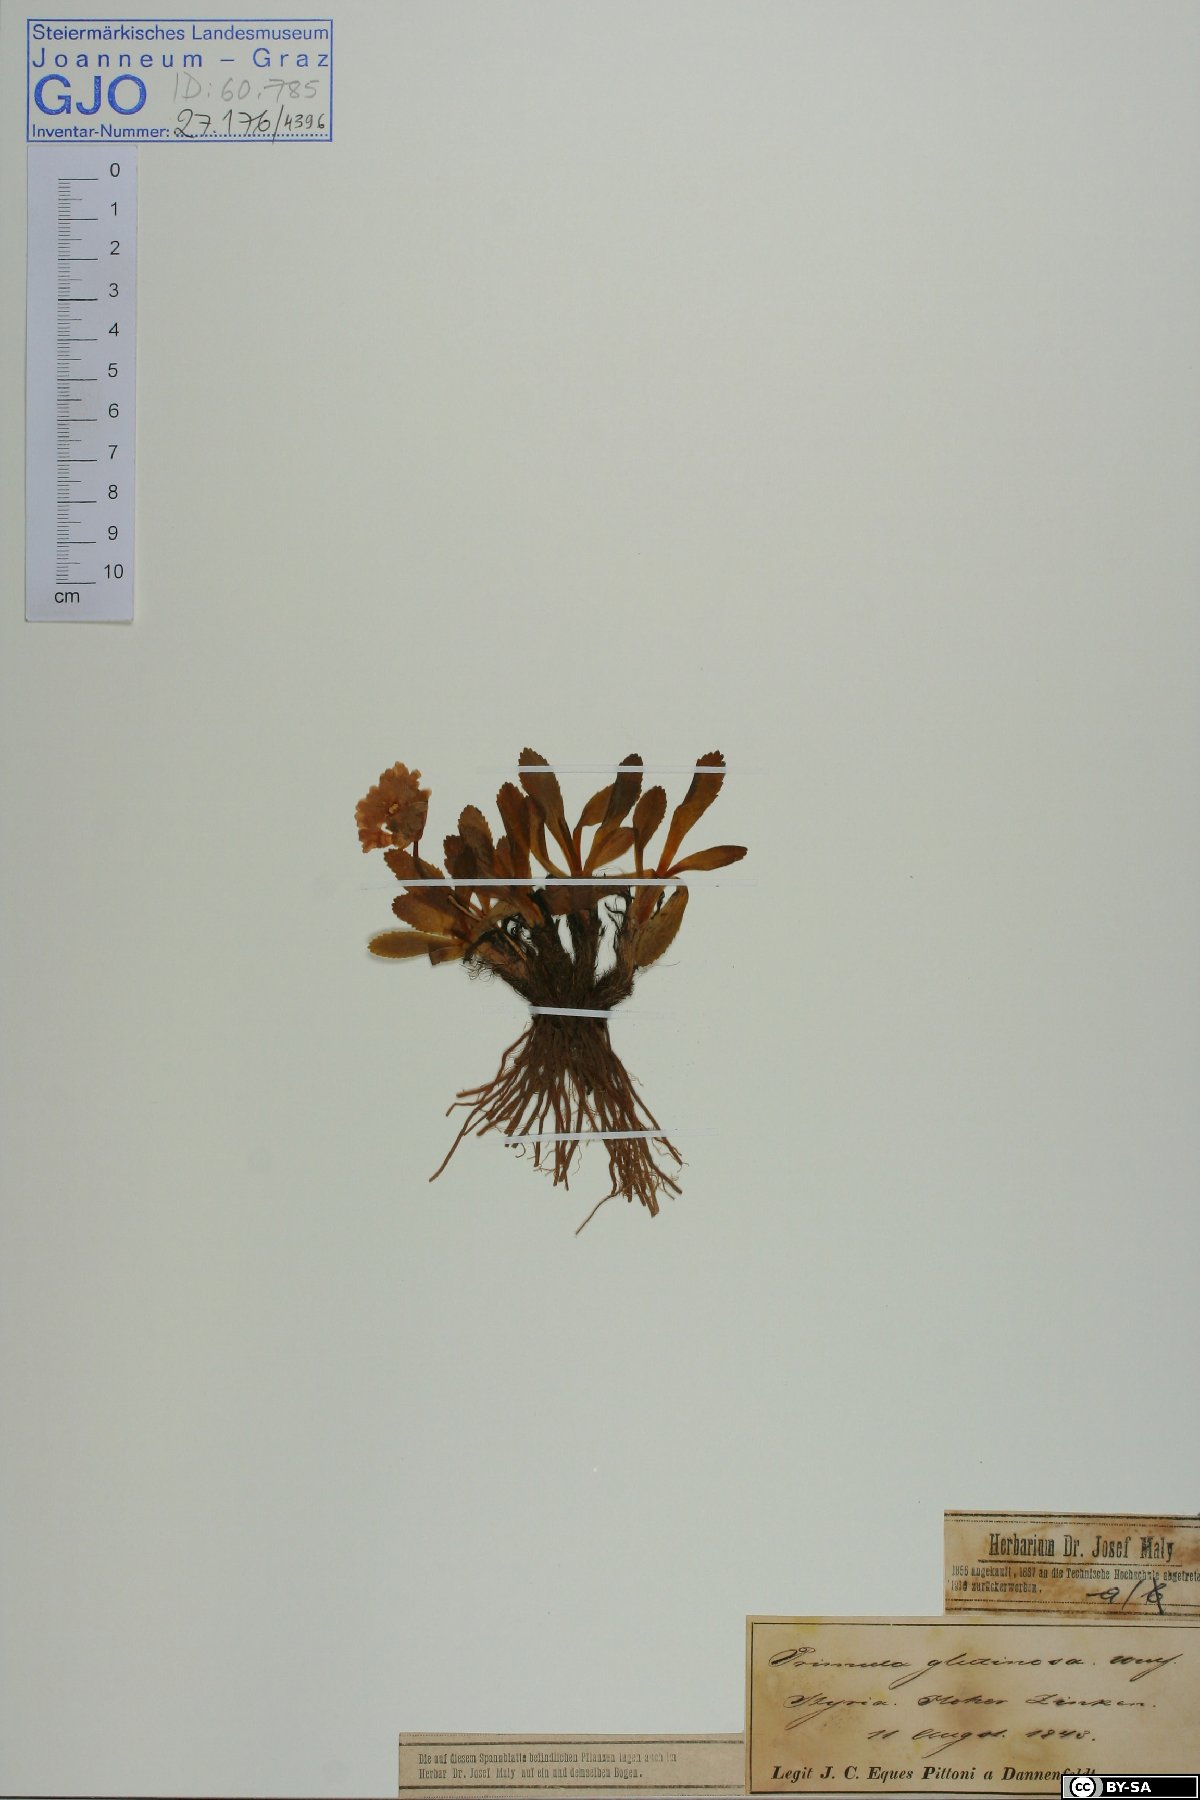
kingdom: Plantae
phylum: Tracheophyta
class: Magnoliopsida
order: Ericales
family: Primulaceae
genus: Primula
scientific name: Primula glutinosa
